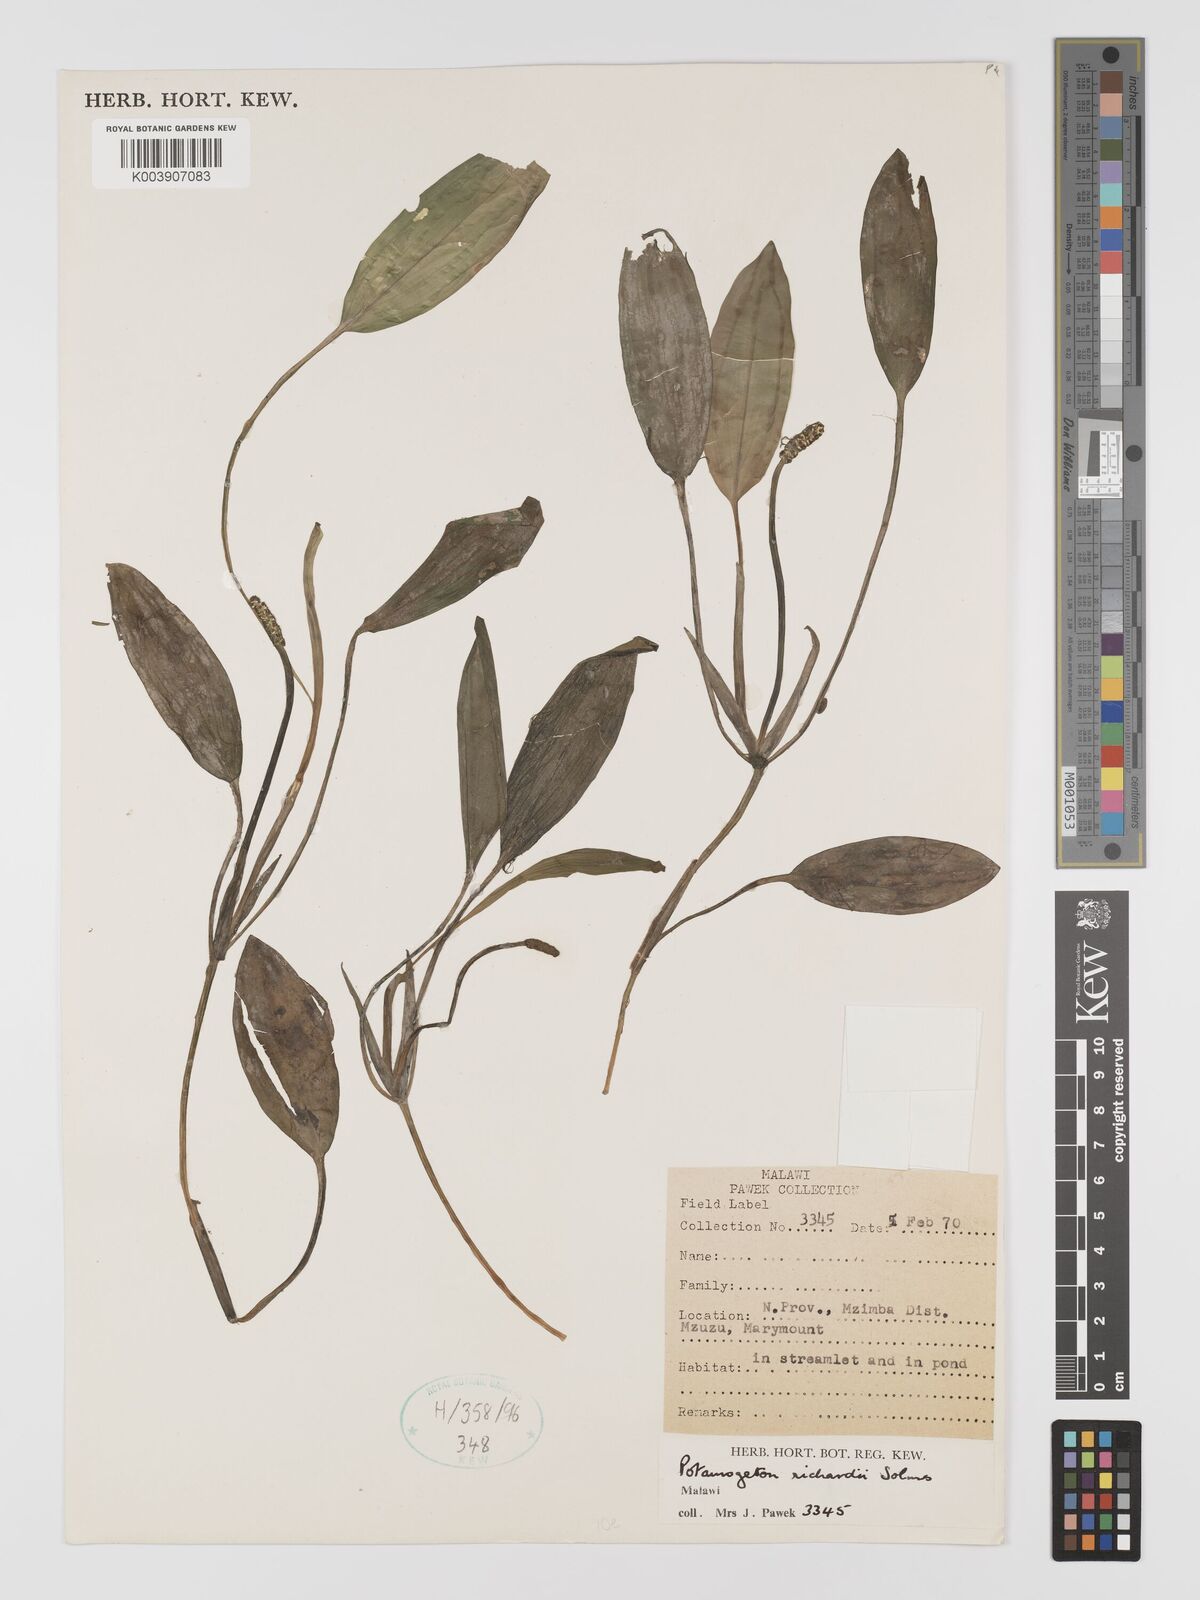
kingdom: Plantae
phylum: Tracheophyta
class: Liliopsida
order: Alismatales
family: Potamogetonaceae
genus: Potamogeton
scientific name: Potamogeton nodosus
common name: Loddon pondweed
